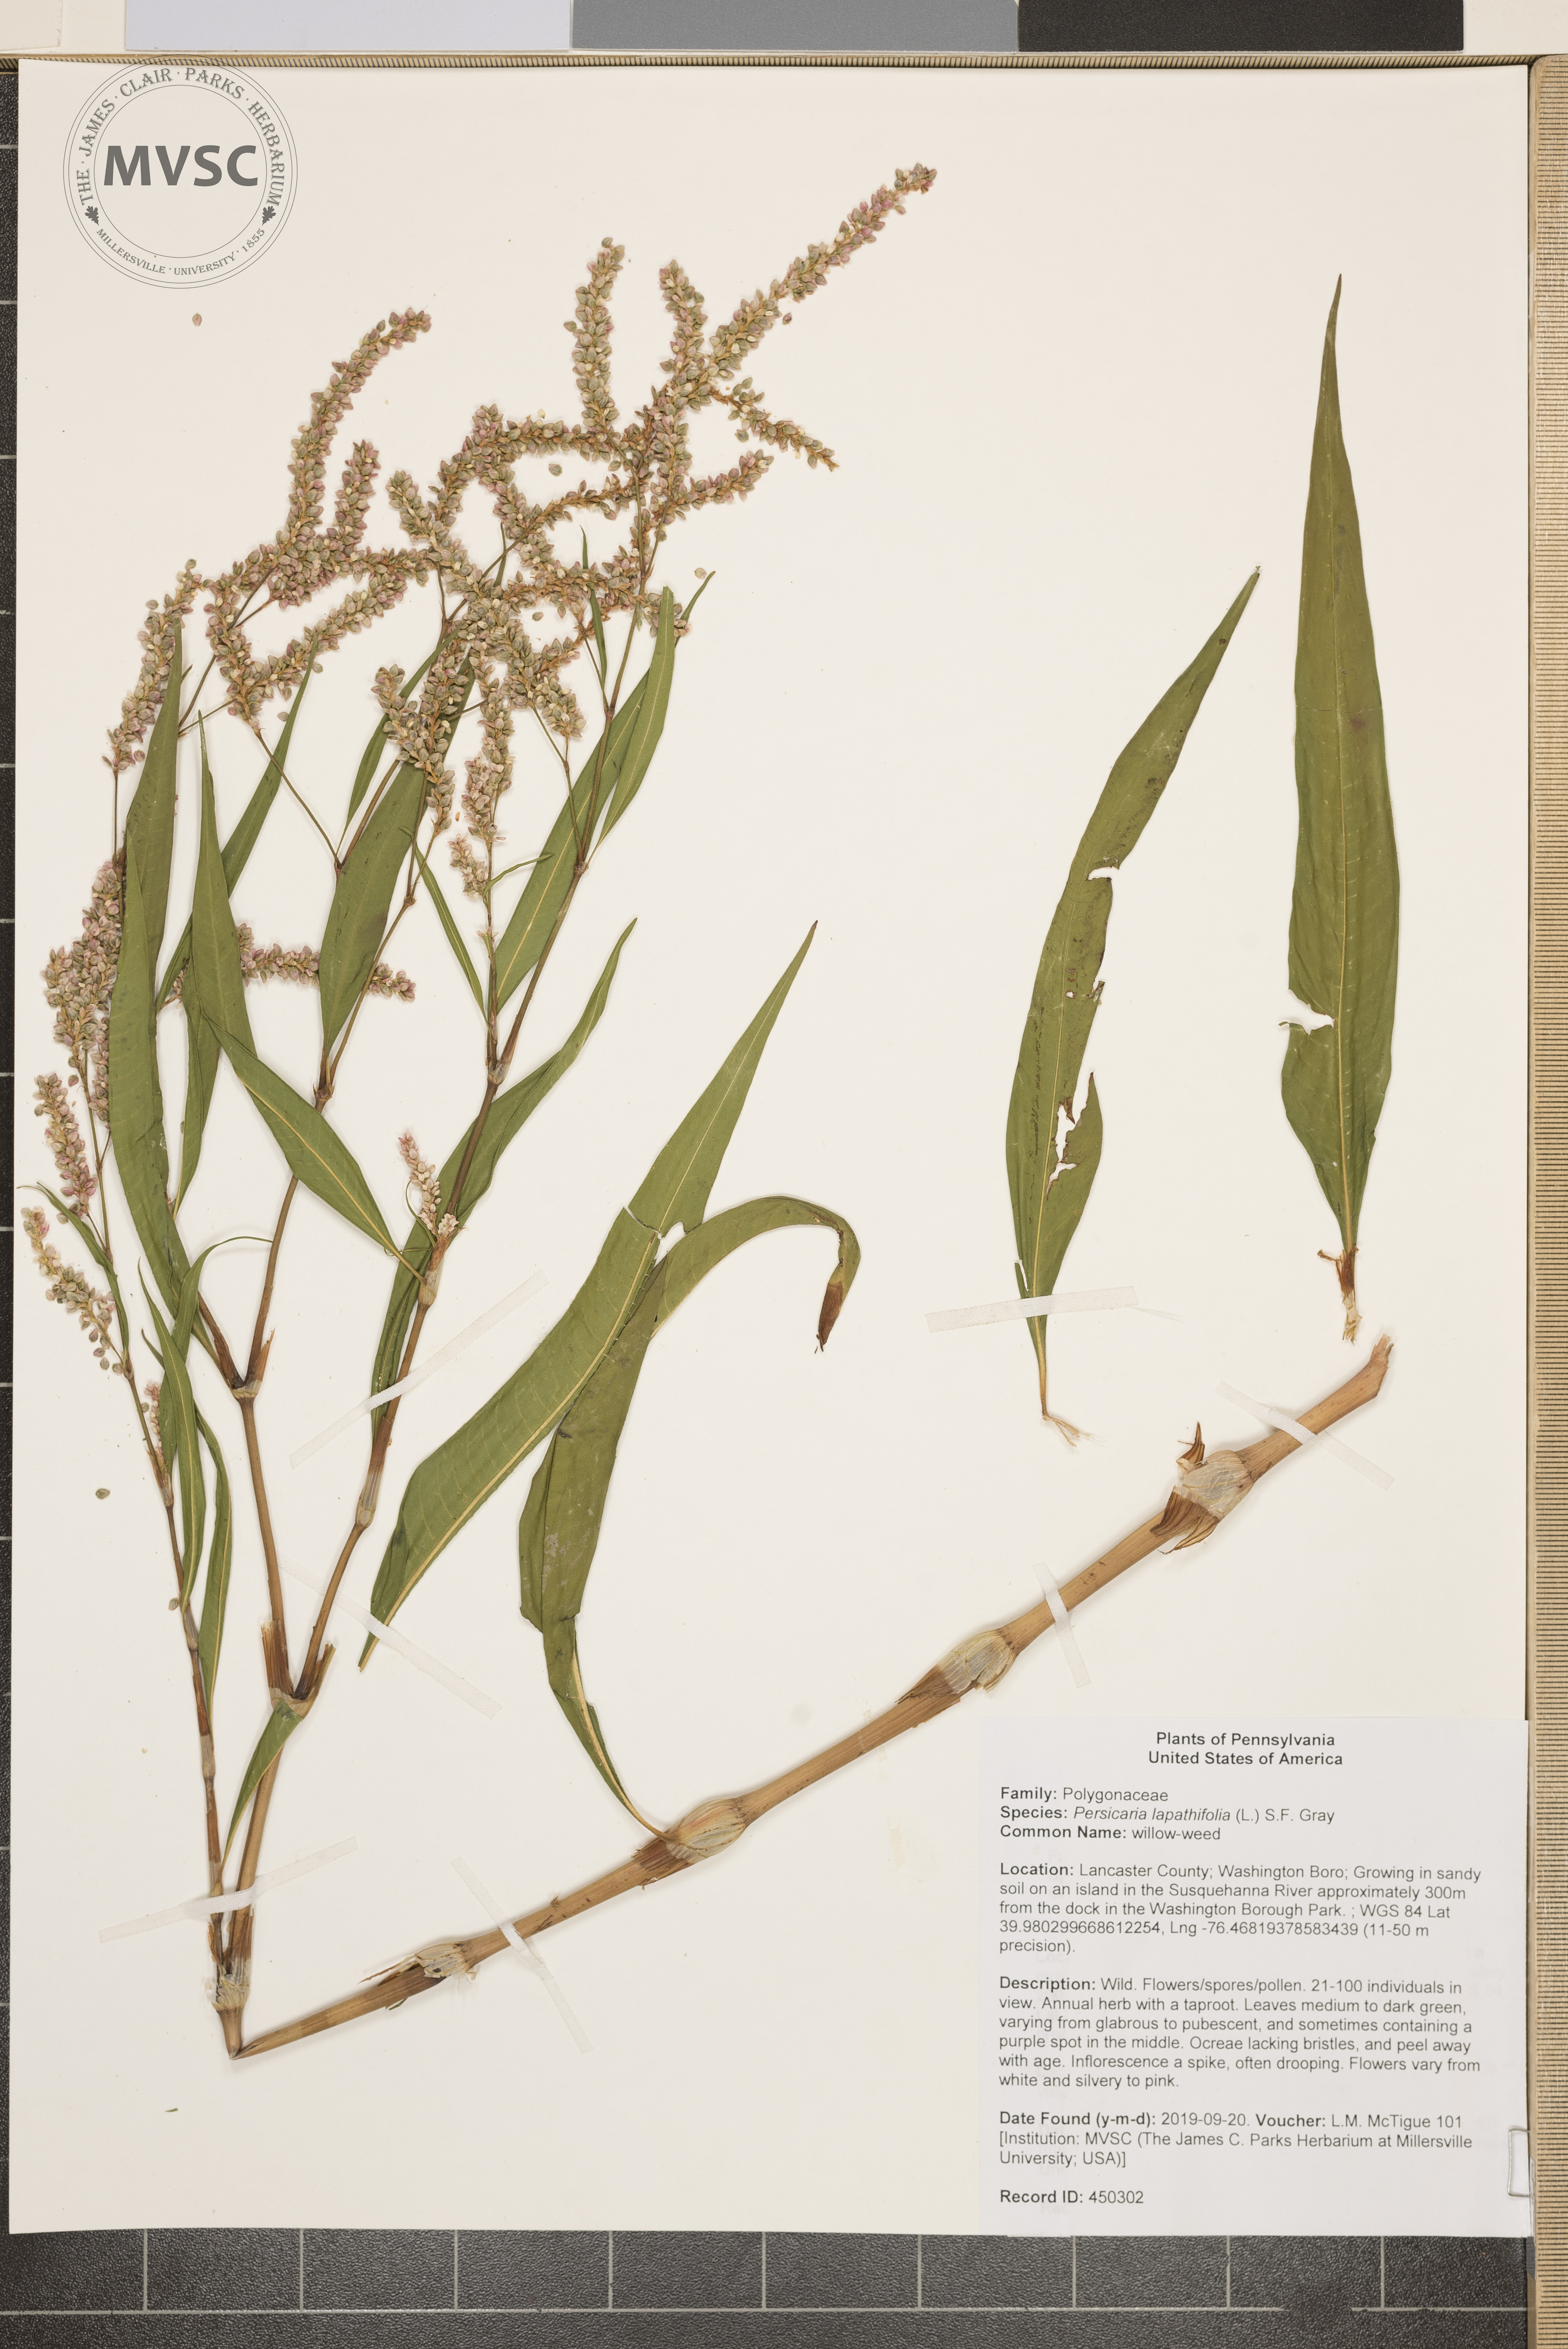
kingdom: Plantae
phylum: Tracheophyta
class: Magnoliopsida
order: Caryophyllales
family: Polygonaceae
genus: Persicaria
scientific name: Persicaria lapathifolia
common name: willow-weed
